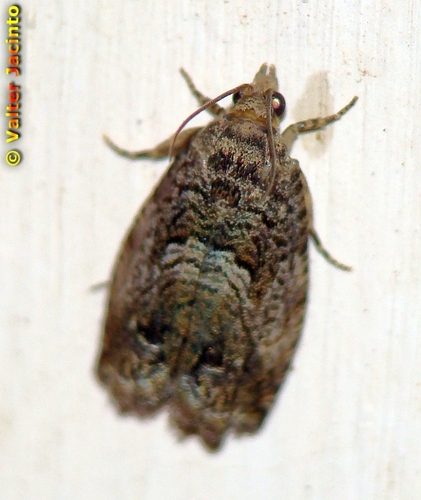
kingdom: Animalia
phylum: Arthropoda
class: Insecta
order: Lepidoptera
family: Tortricidae
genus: Cydia
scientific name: Cydia fagiglandana
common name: Large beech piercer
